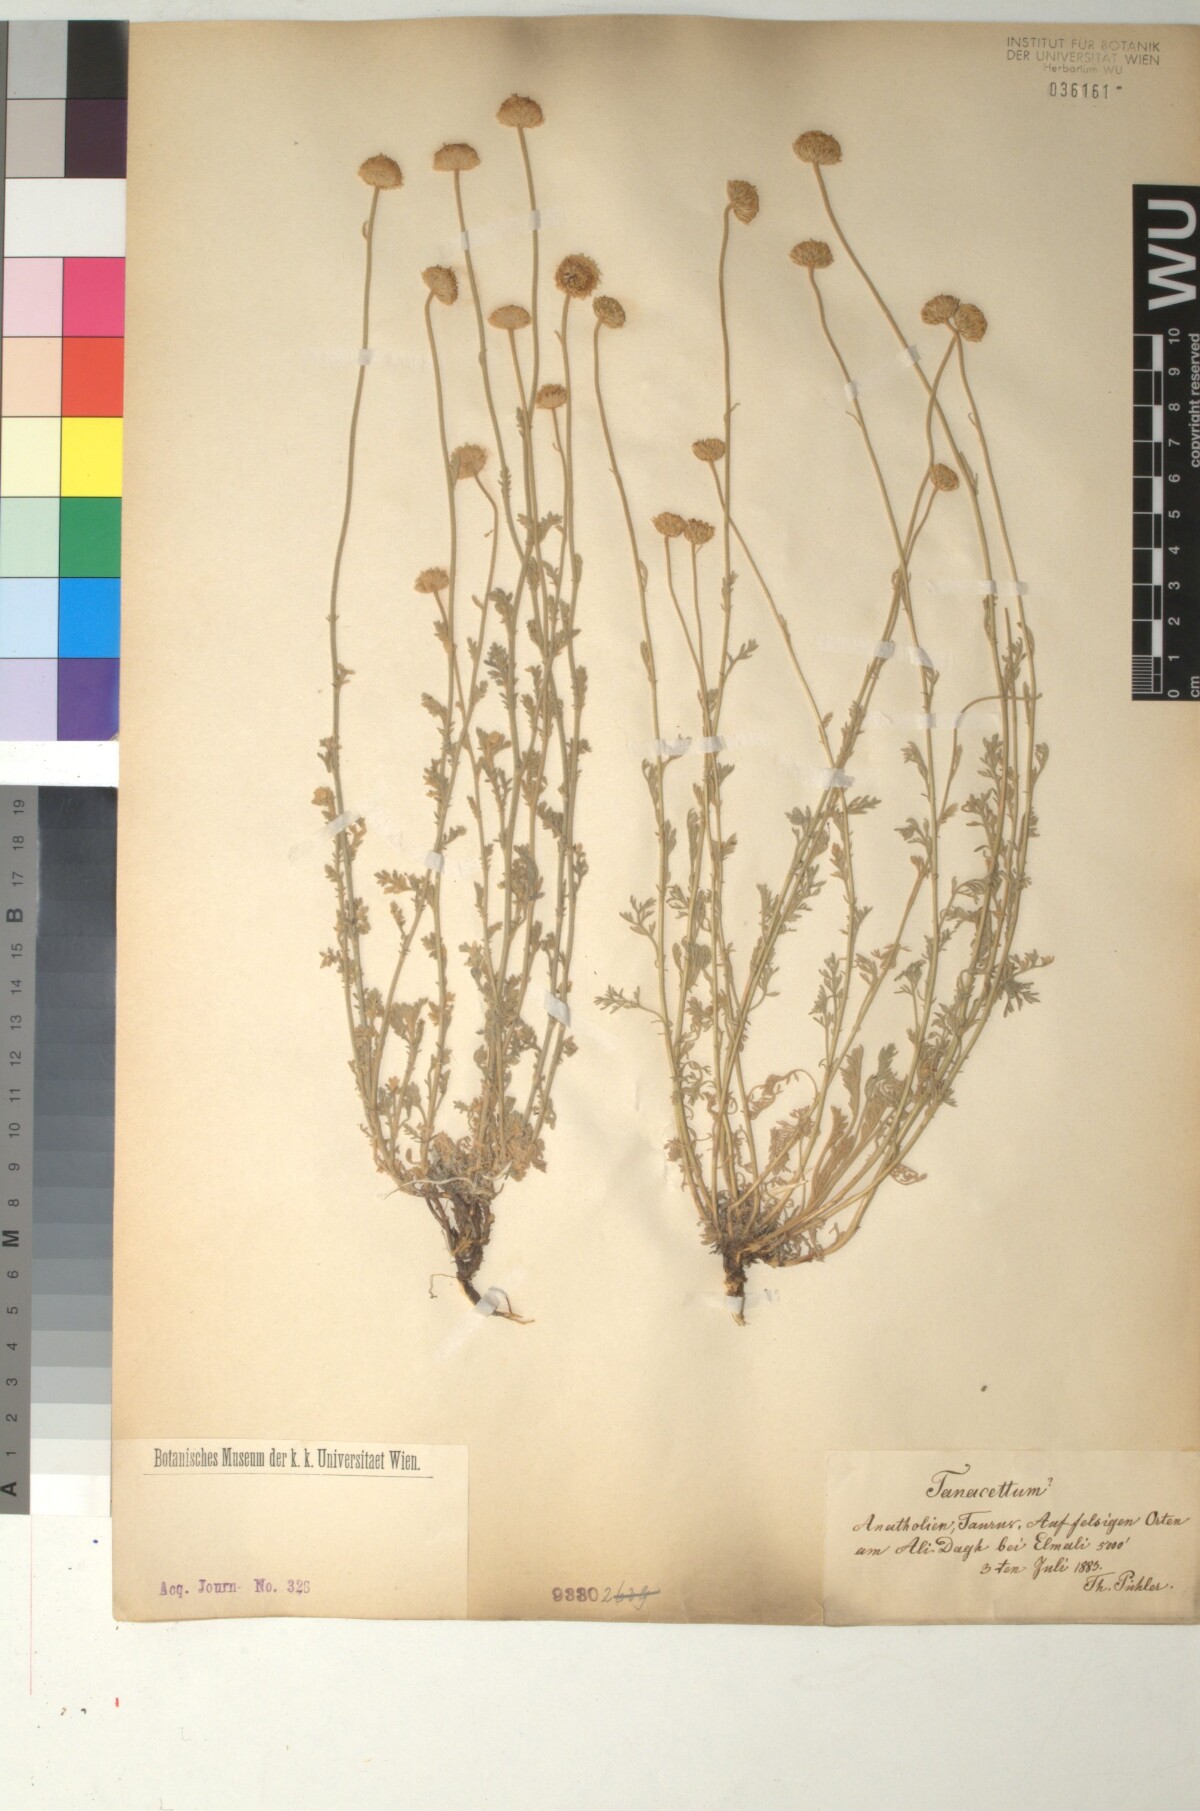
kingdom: Plantae
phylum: Tracheophyta
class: Magnoliopsida
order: Asterales
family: Asteraceae
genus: Anthemis
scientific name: Anthemis cretica
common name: Mountain dog-daisy
